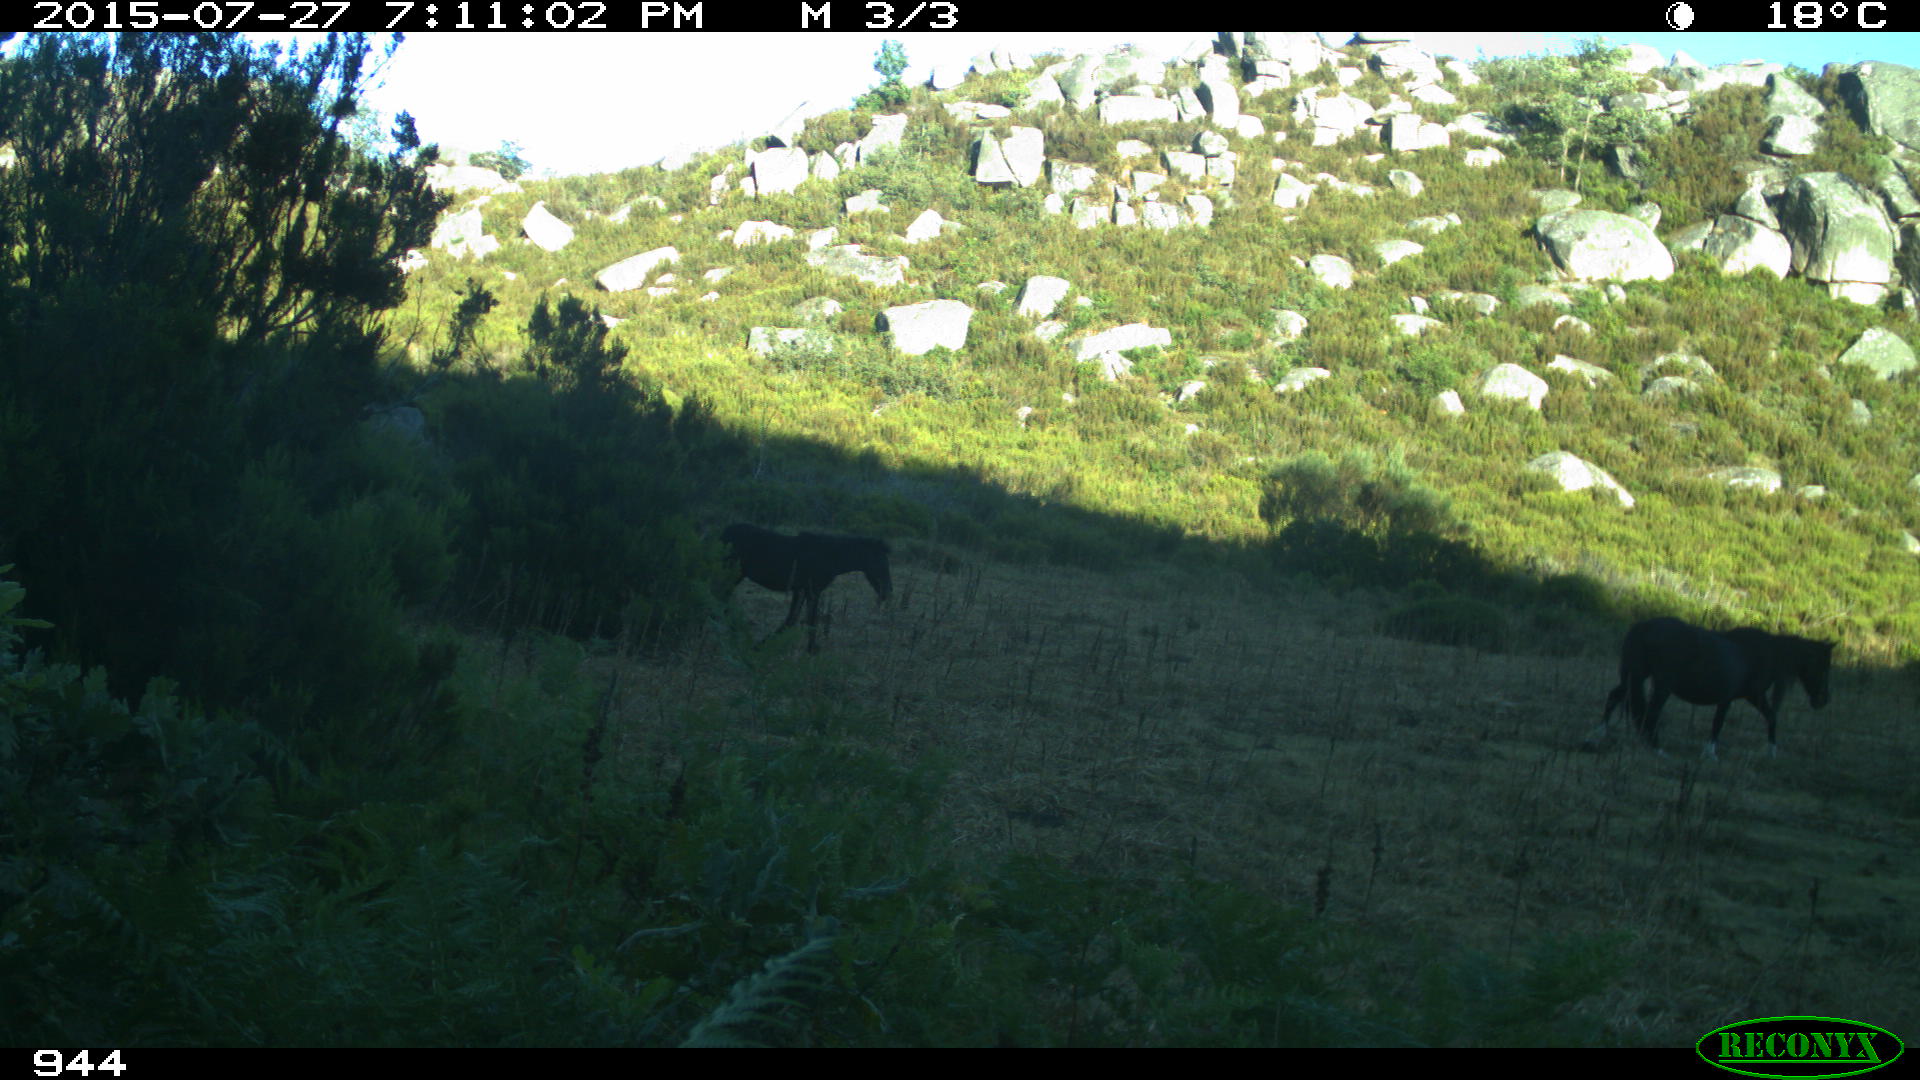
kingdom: Animalia
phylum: Chordata
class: Mammalia
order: Perissodactyla
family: Equidae
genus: Equus
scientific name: Equus caballus
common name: Horse
